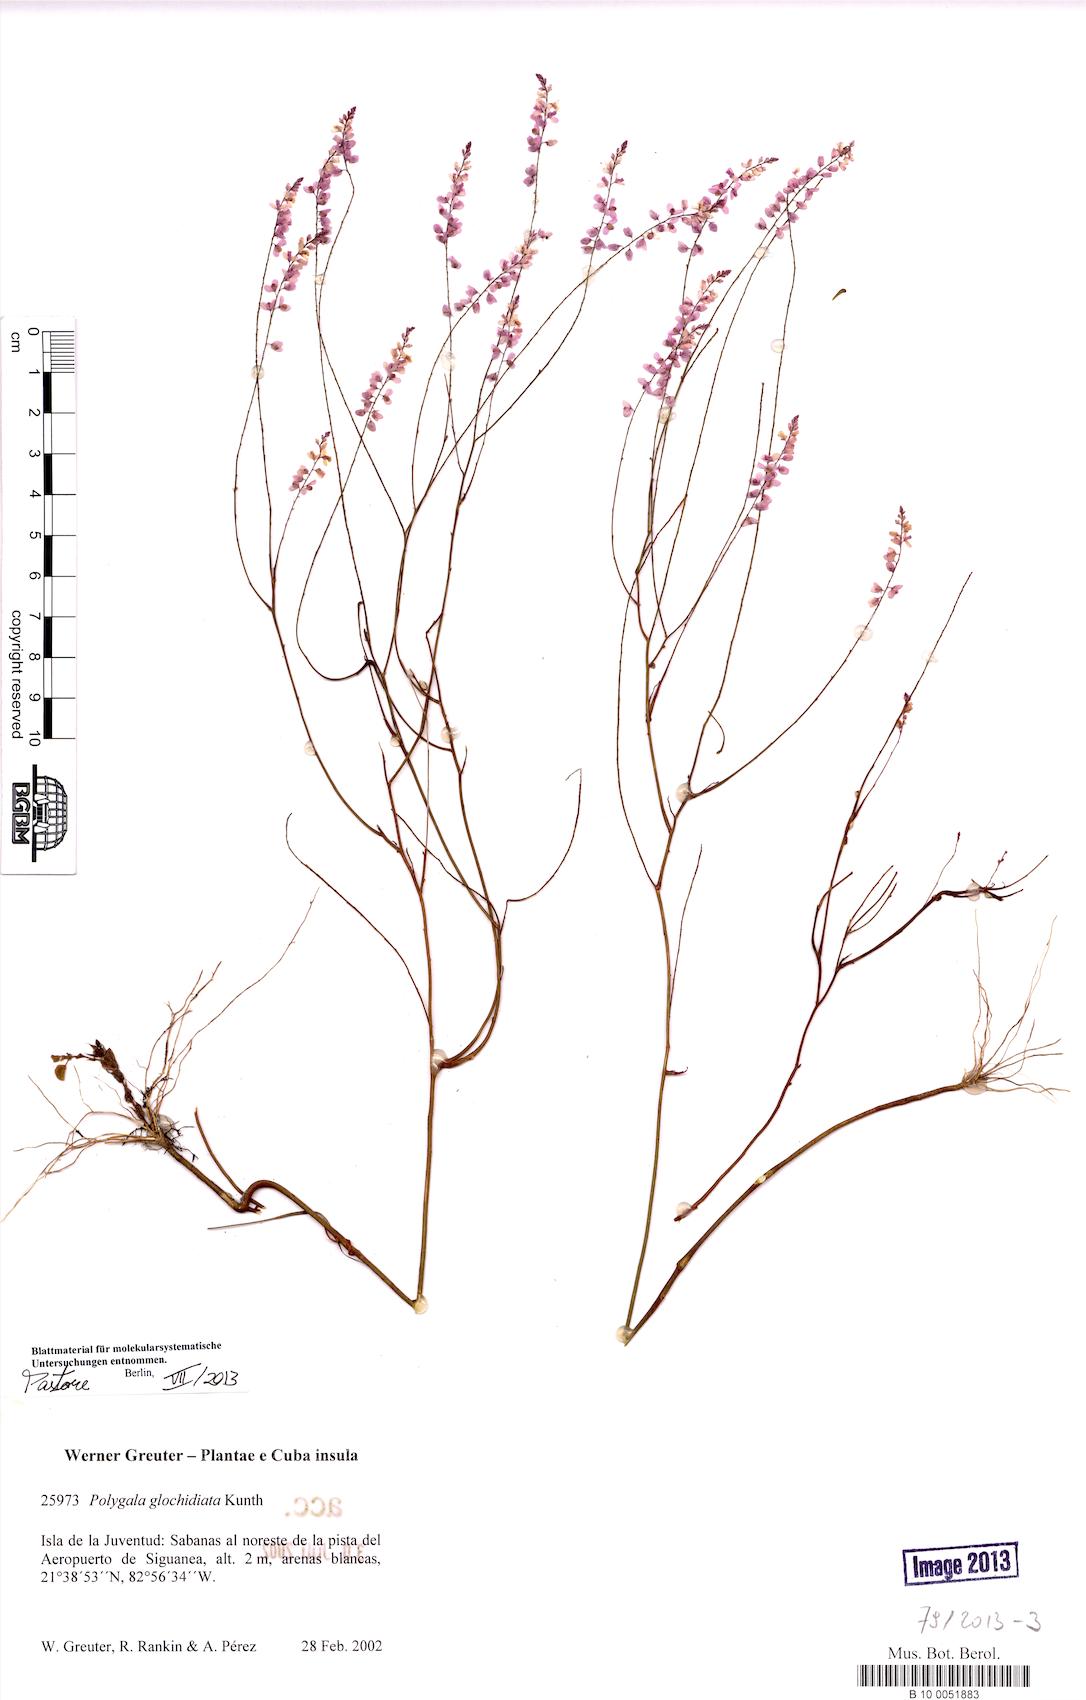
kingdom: Plantae
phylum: Tracheophyta
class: Magnoliopsida
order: Fabales
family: Polygalaceae
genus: Polygala
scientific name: Polygala Senega glochidata
